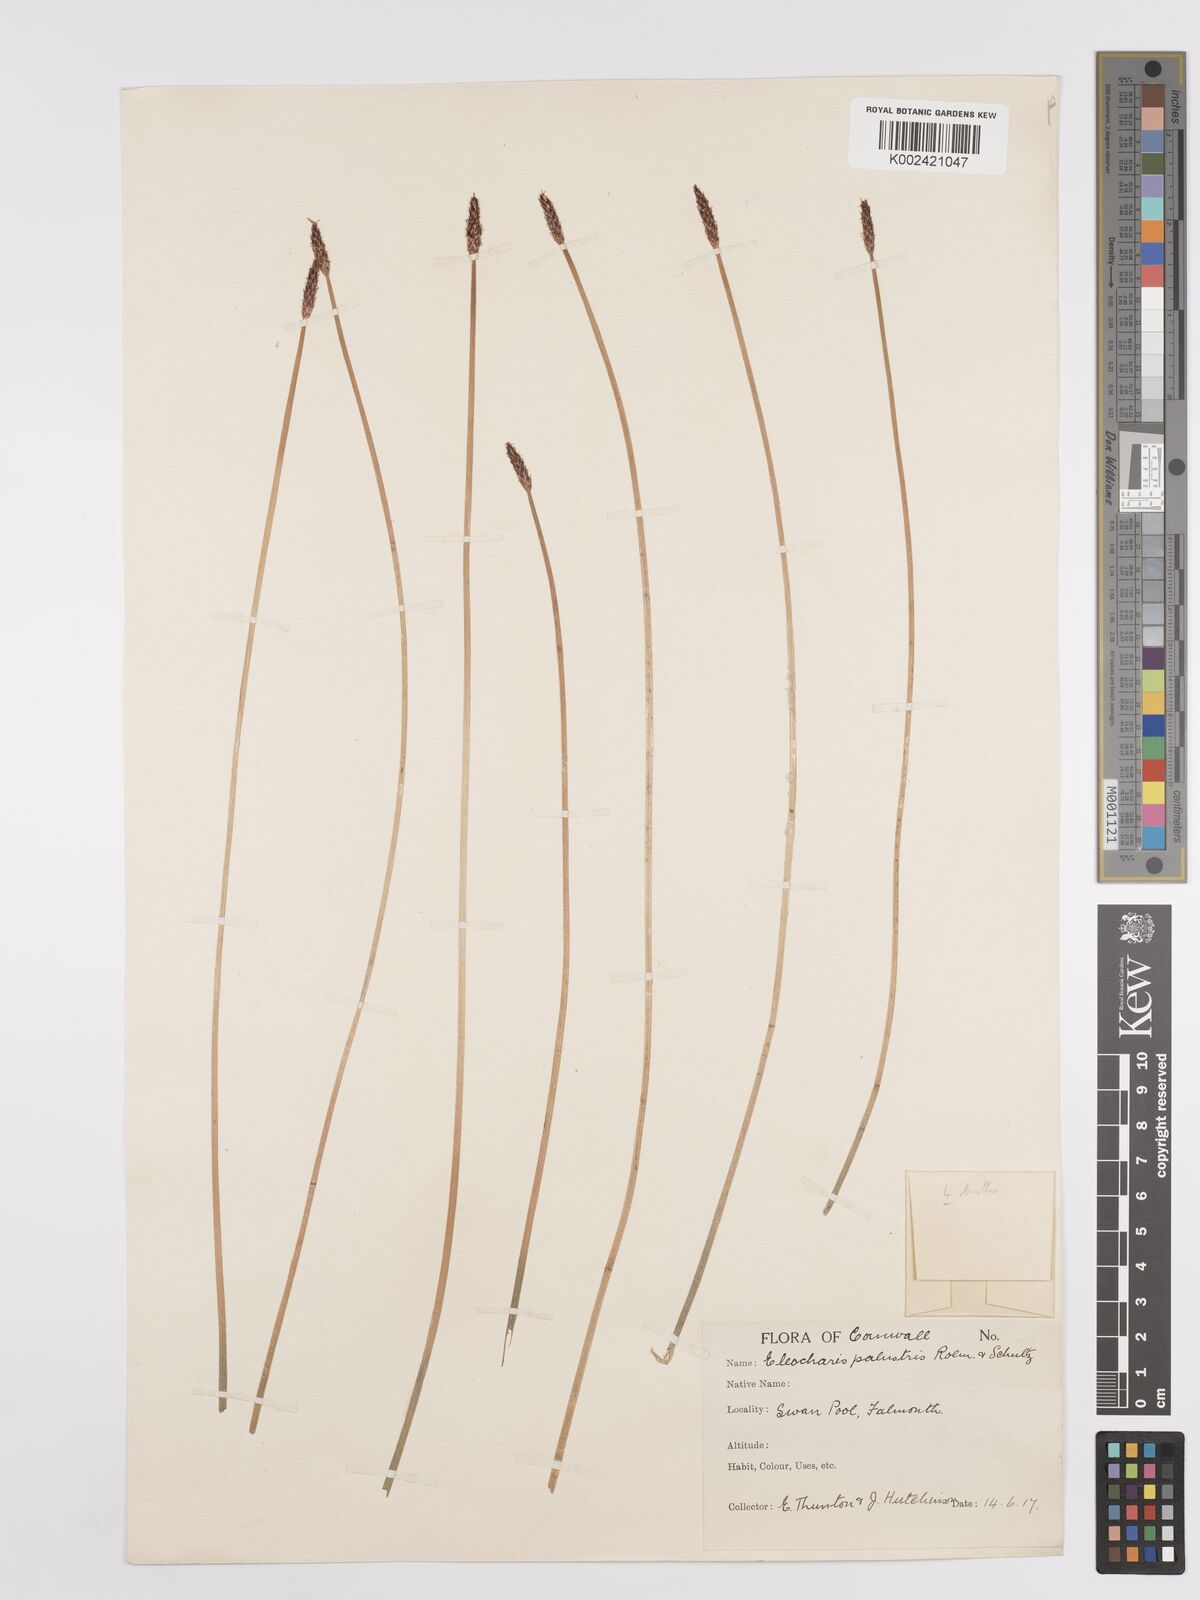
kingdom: Plantae
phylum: Tracheophyta
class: Liliopsida
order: Poales
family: Cyperaceae
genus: Eleocharis
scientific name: Eleocharis palustris
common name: Common spike-rush
